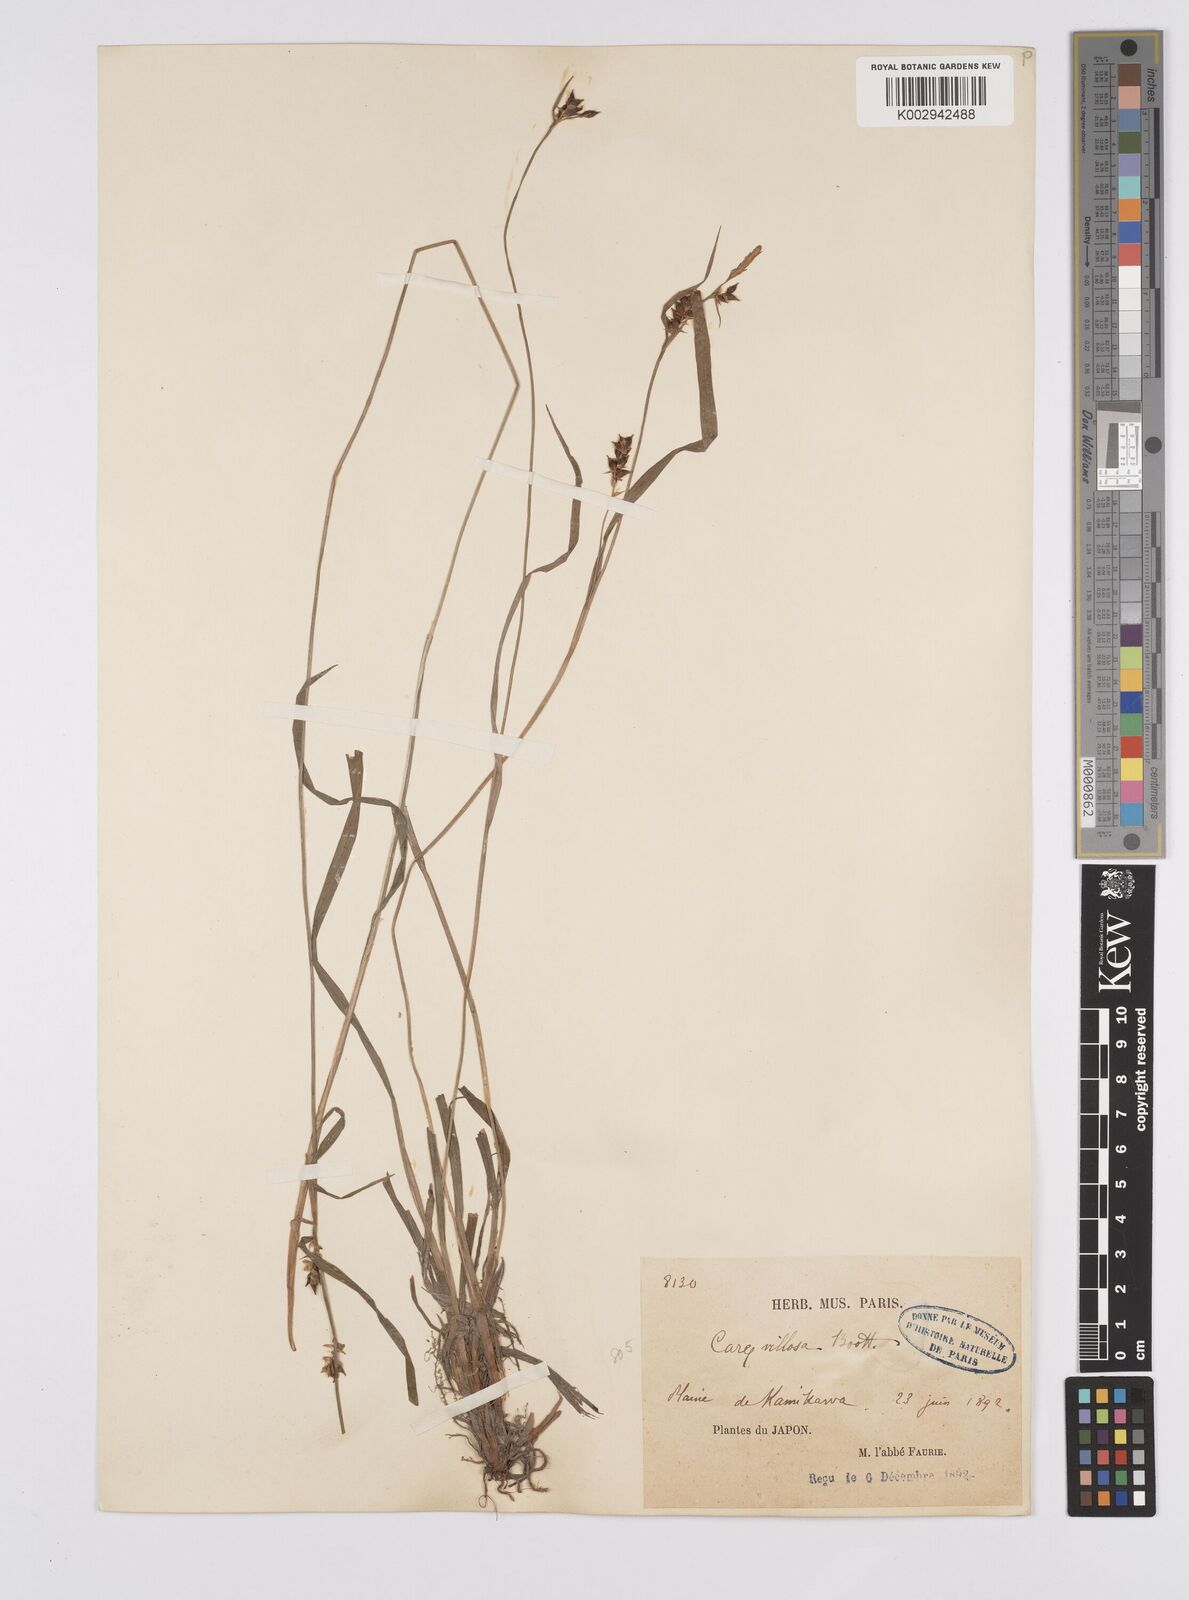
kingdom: Plantae
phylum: Tracheophyta
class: Liliopsida
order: Poales
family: Cyperaceae
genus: Carex
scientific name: Carex latisquamea
